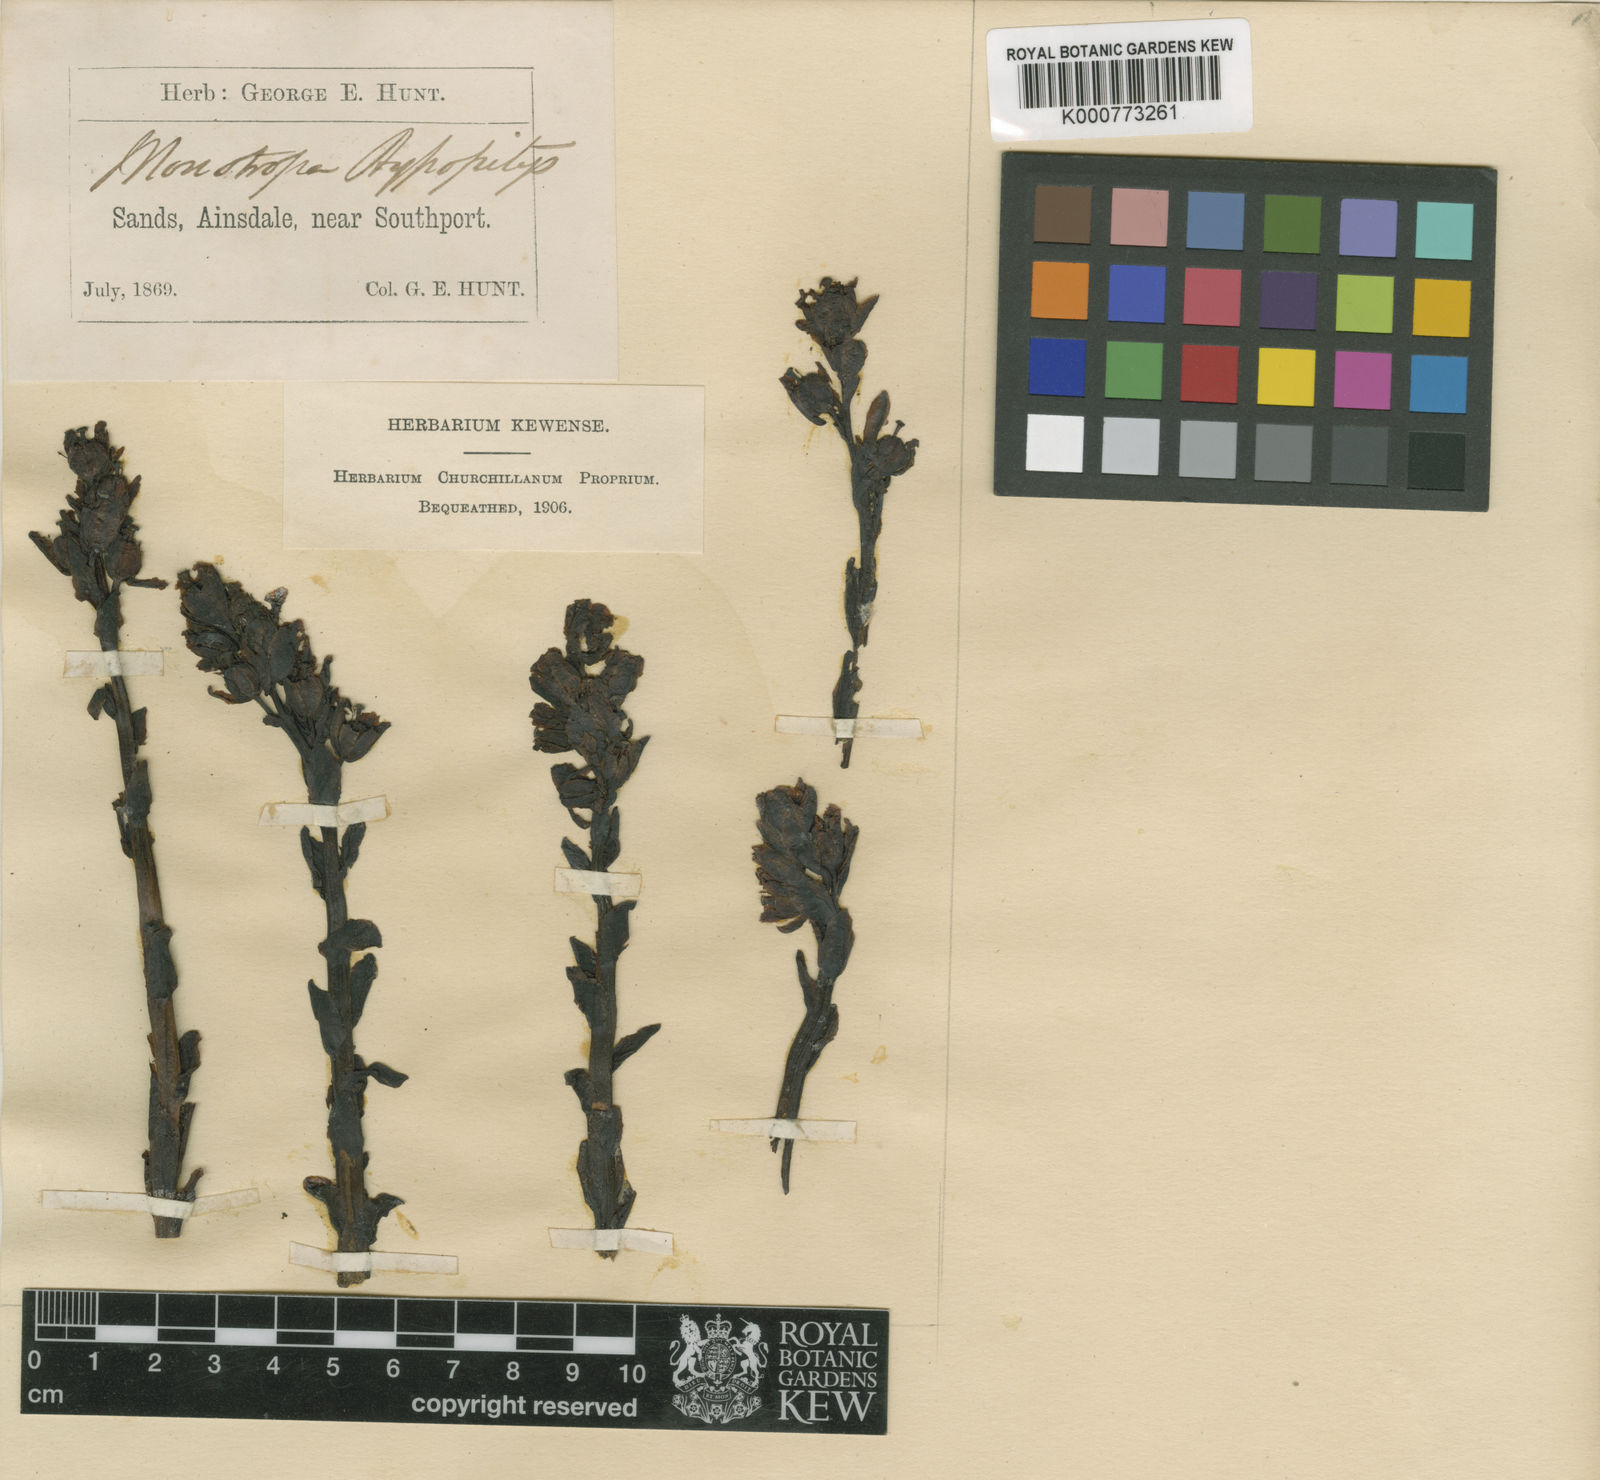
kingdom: Plantae
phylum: Tracheophyta
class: Magnoliopsida
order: Ericales
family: Ericaceae
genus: Monotropa
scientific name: Monotropa
